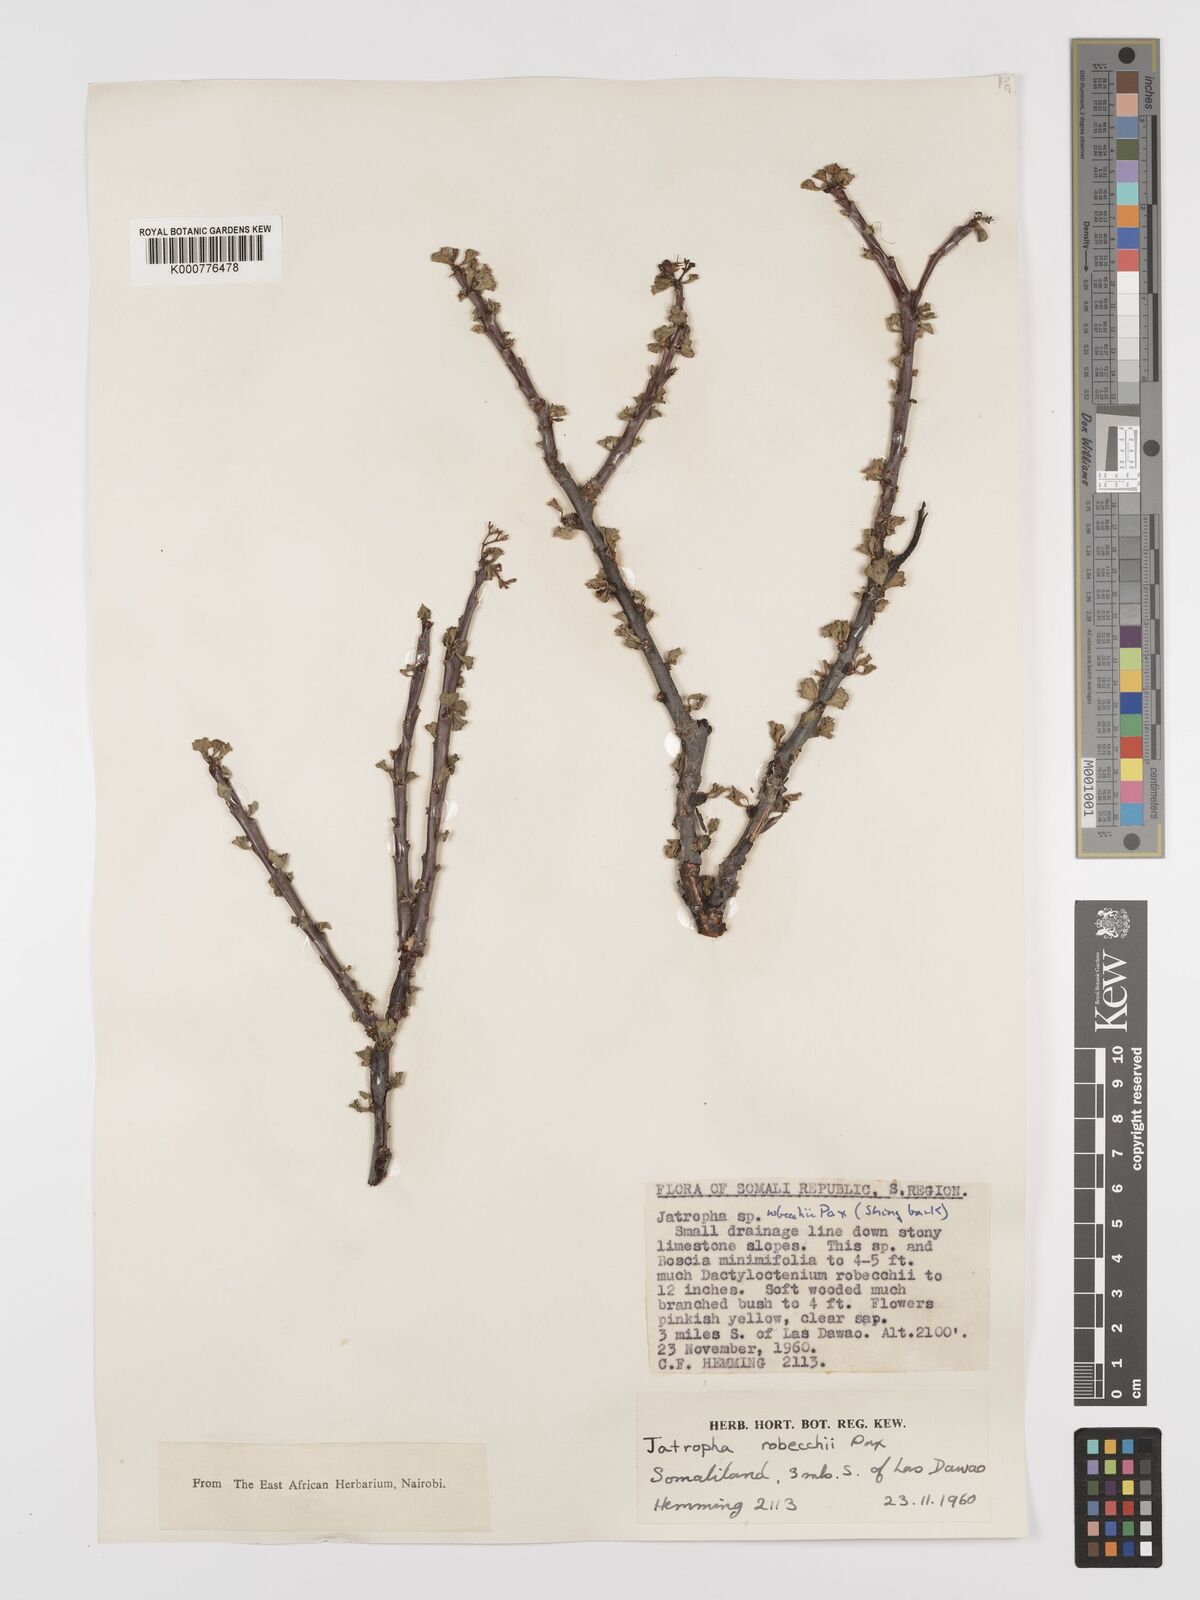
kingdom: Plantae
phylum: Tracheophyta
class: Magnoliopsida
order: Malpighiales
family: Euphorbiaceae
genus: Jatropha
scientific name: Jatropha robecchii
